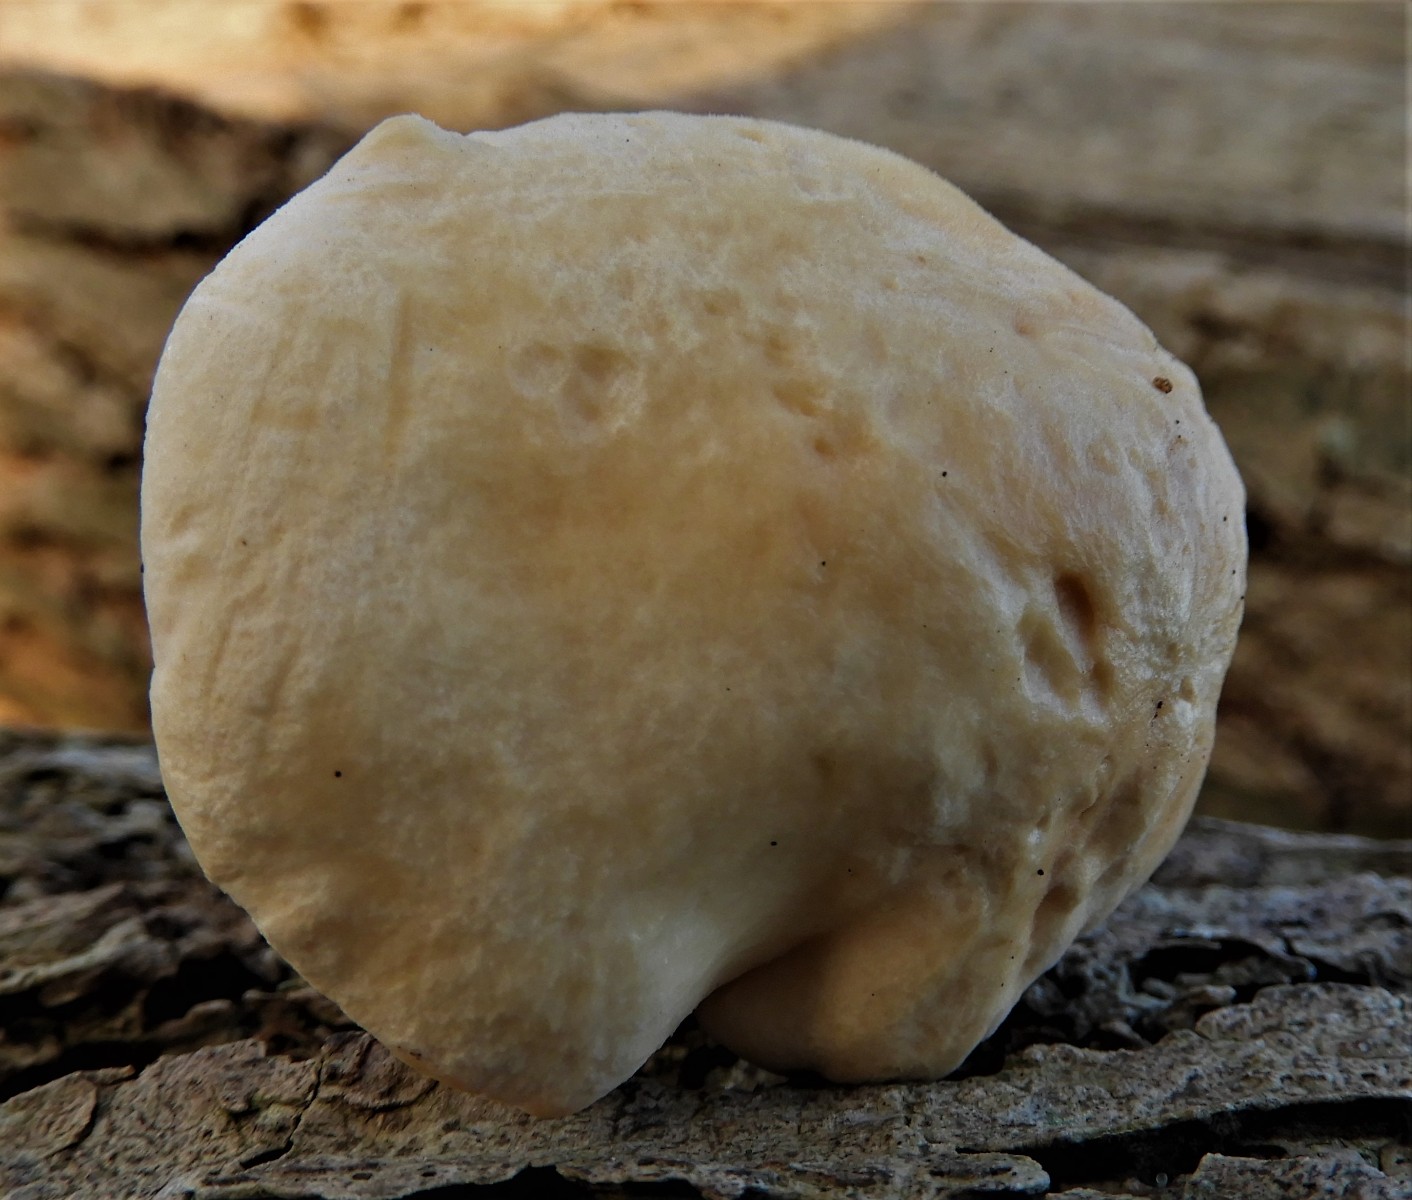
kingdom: Fungi
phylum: Basidiomycota
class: Agaricomycetes
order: Cantharellales
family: Hydnaceae
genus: Hydnum
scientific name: Hydnum
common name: pigsvamp
